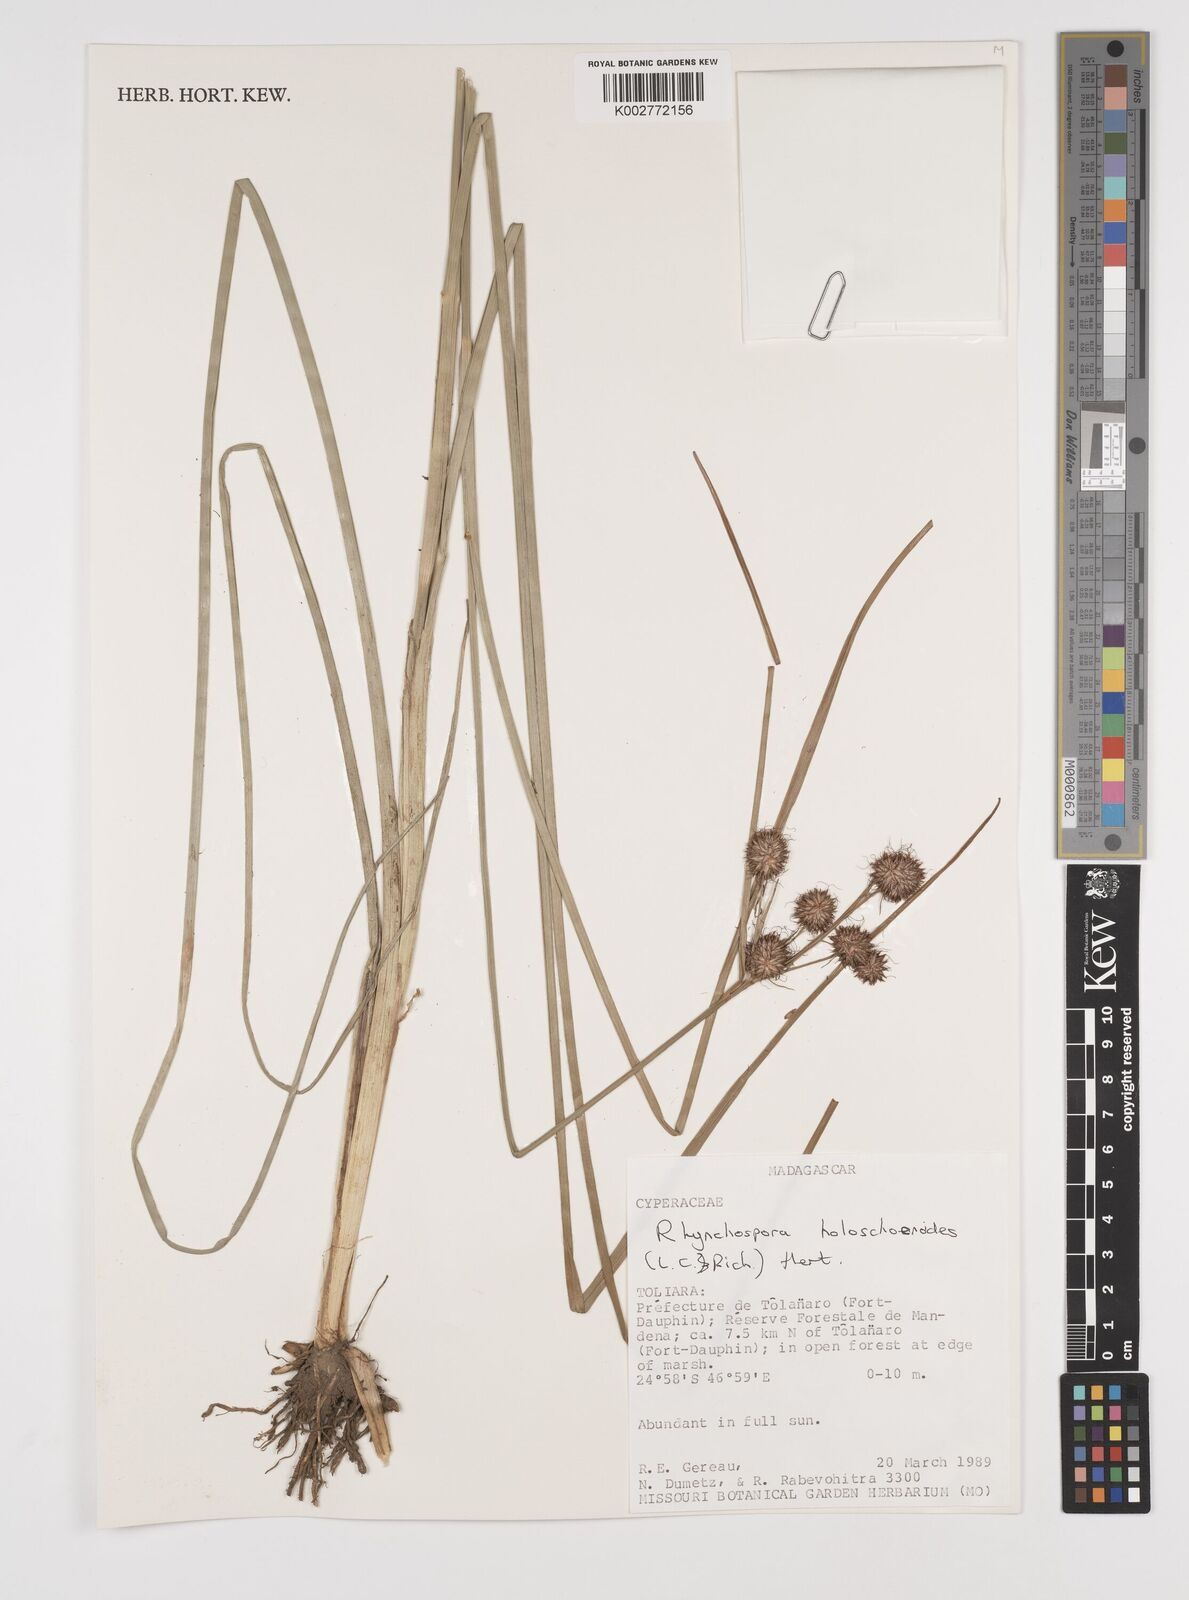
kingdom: Plantae
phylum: Tracheophyta
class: Liliopsida
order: Poales
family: Cyperaceae
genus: Rhynchospora
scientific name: Rhynchospora holoschoenoides
